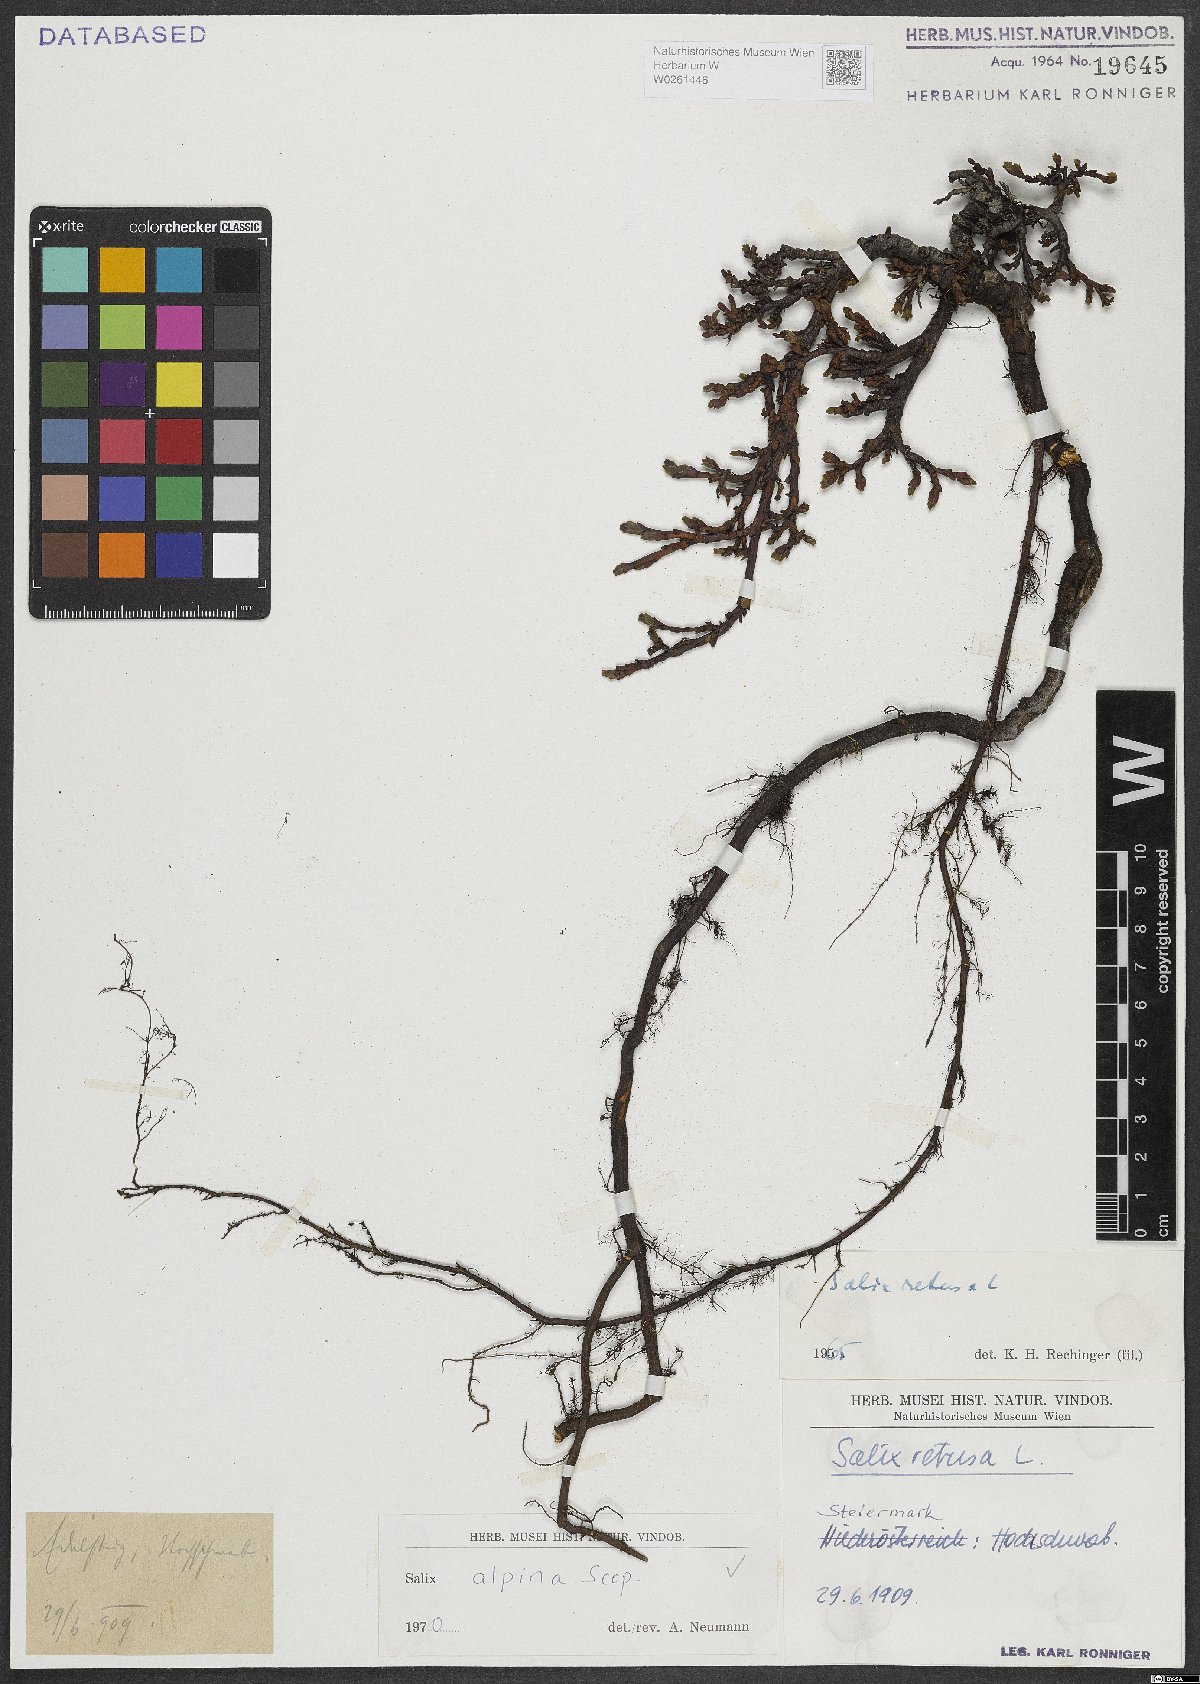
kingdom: Plantae
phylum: Tracheophyta
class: Magnoliopsida
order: Malpighiales
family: Salicaceae
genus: Salix
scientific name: Salix alpina
